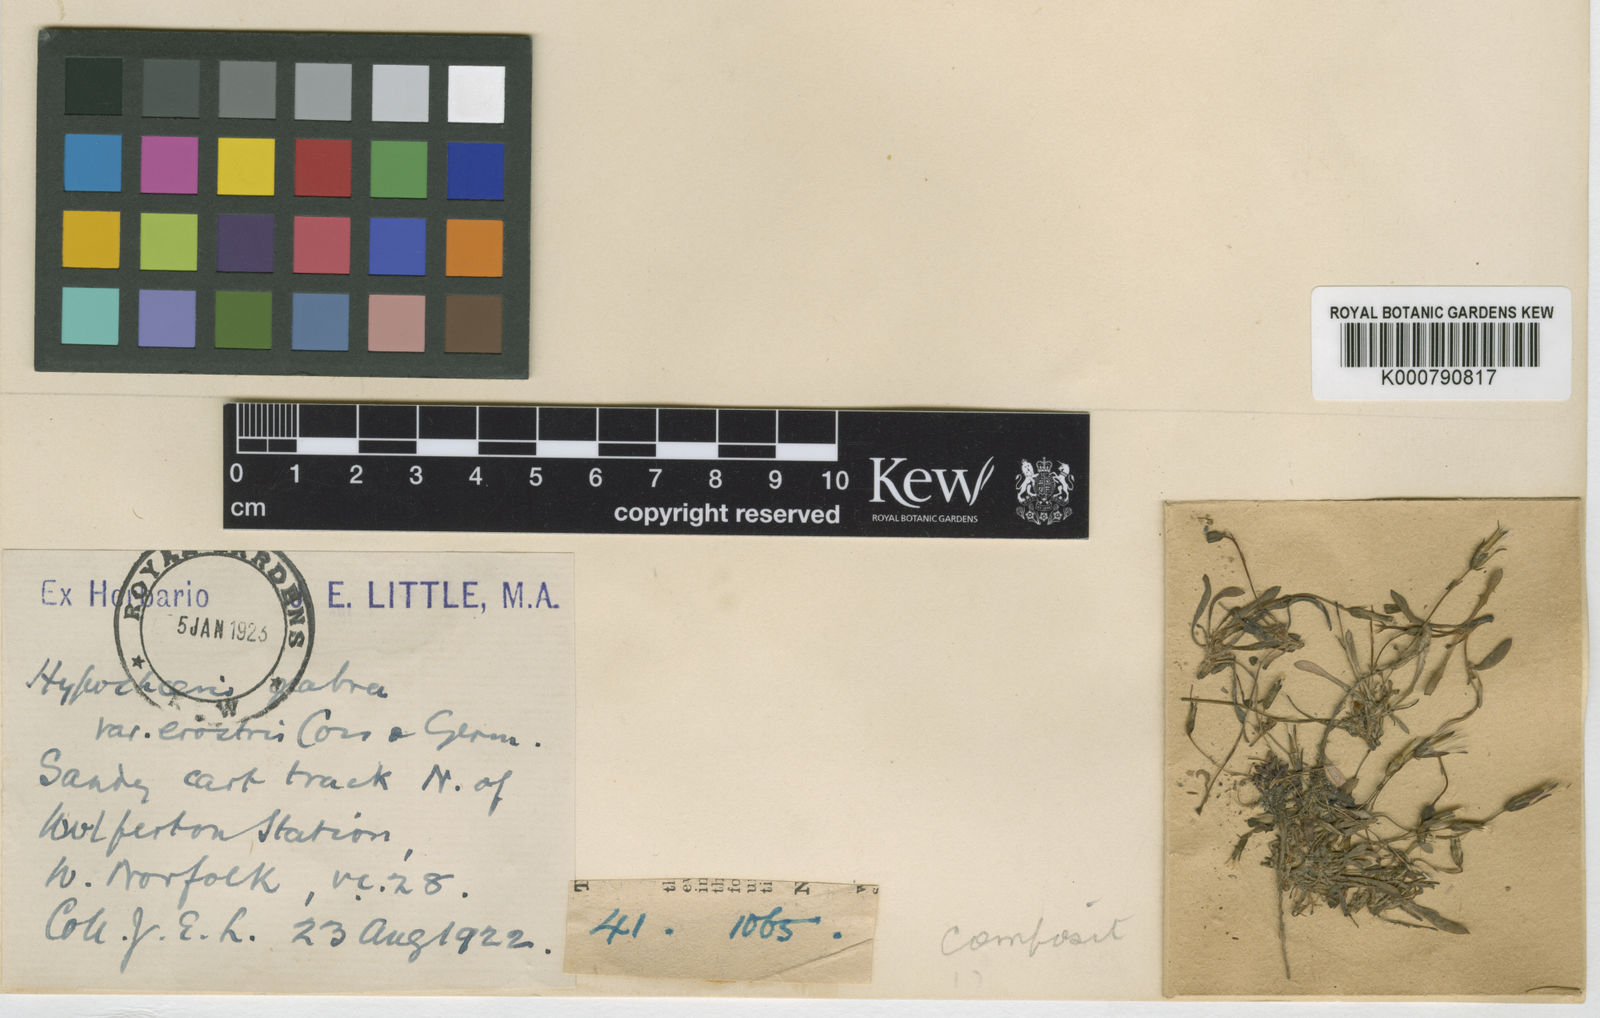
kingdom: Plantae
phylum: Tracheophyta
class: Magnoliopsida
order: Asterales
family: Asteraceae
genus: Hypochaeris
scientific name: Hypochaeris glabra
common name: Smooth catsear
